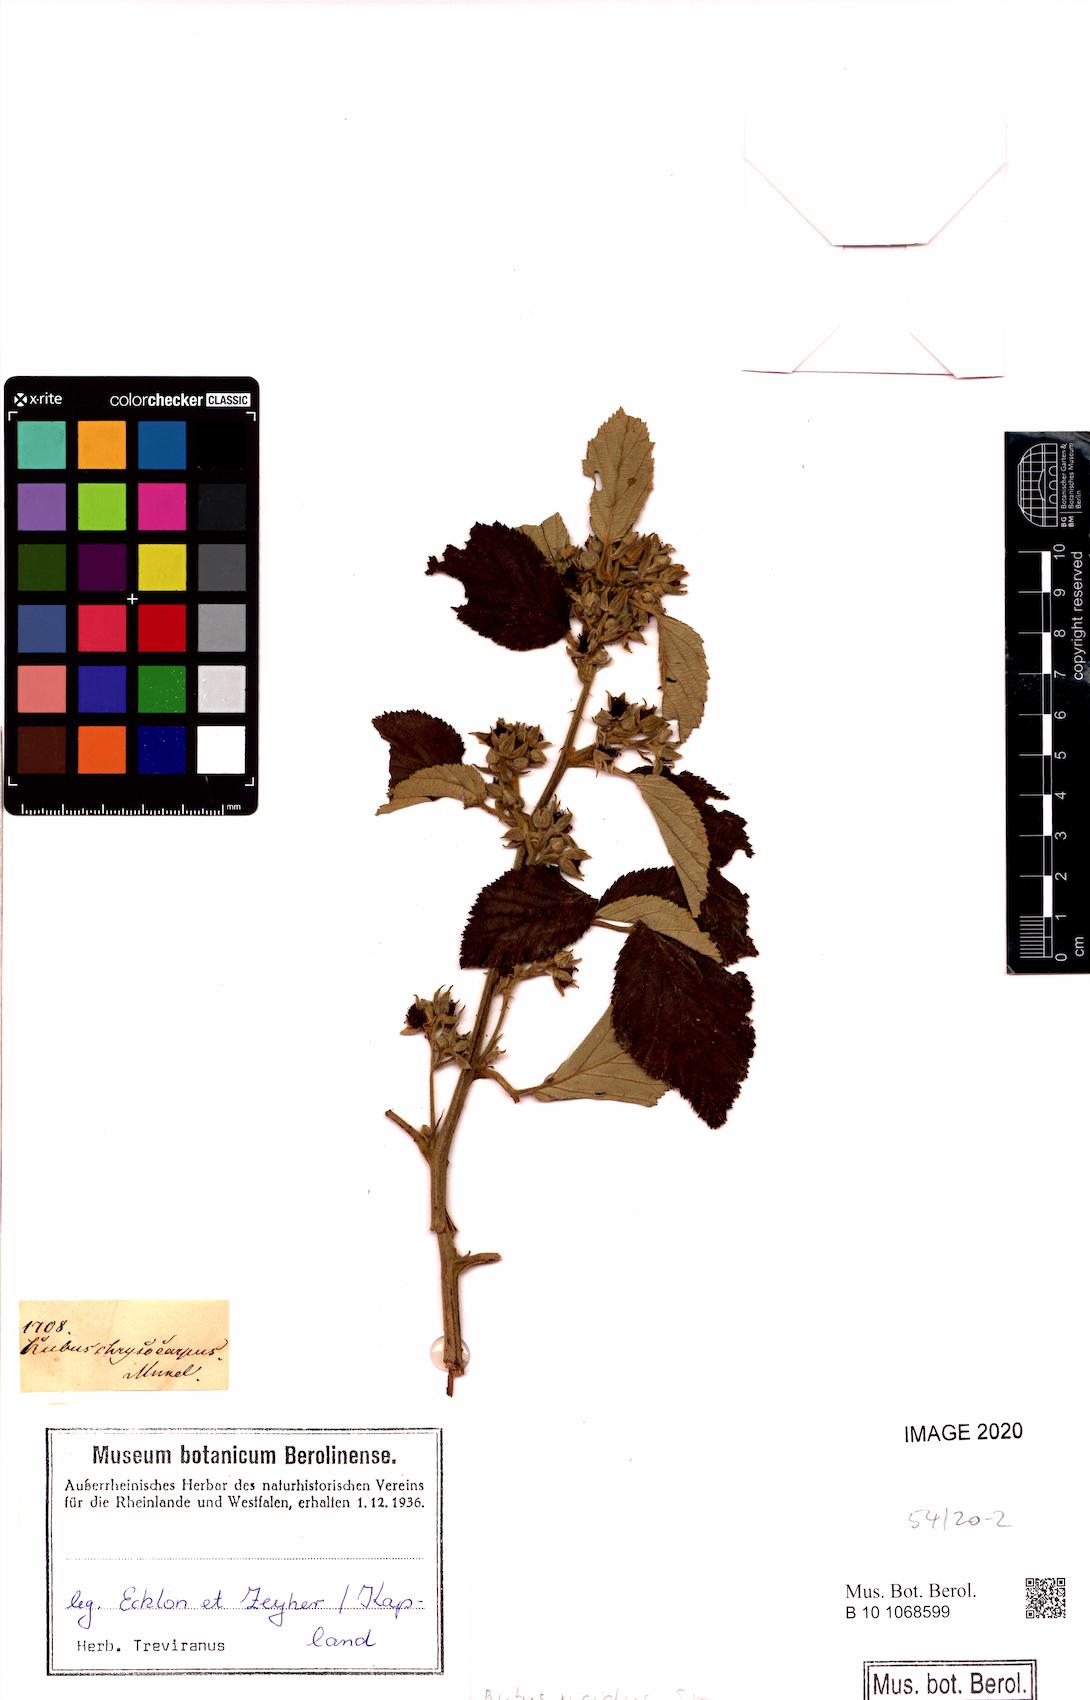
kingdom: Plantae
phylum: Tracheophyta
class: Magnoliopsida
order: Rosales
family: Rosaceae
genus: Rubus
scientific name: Rubus rigidus
